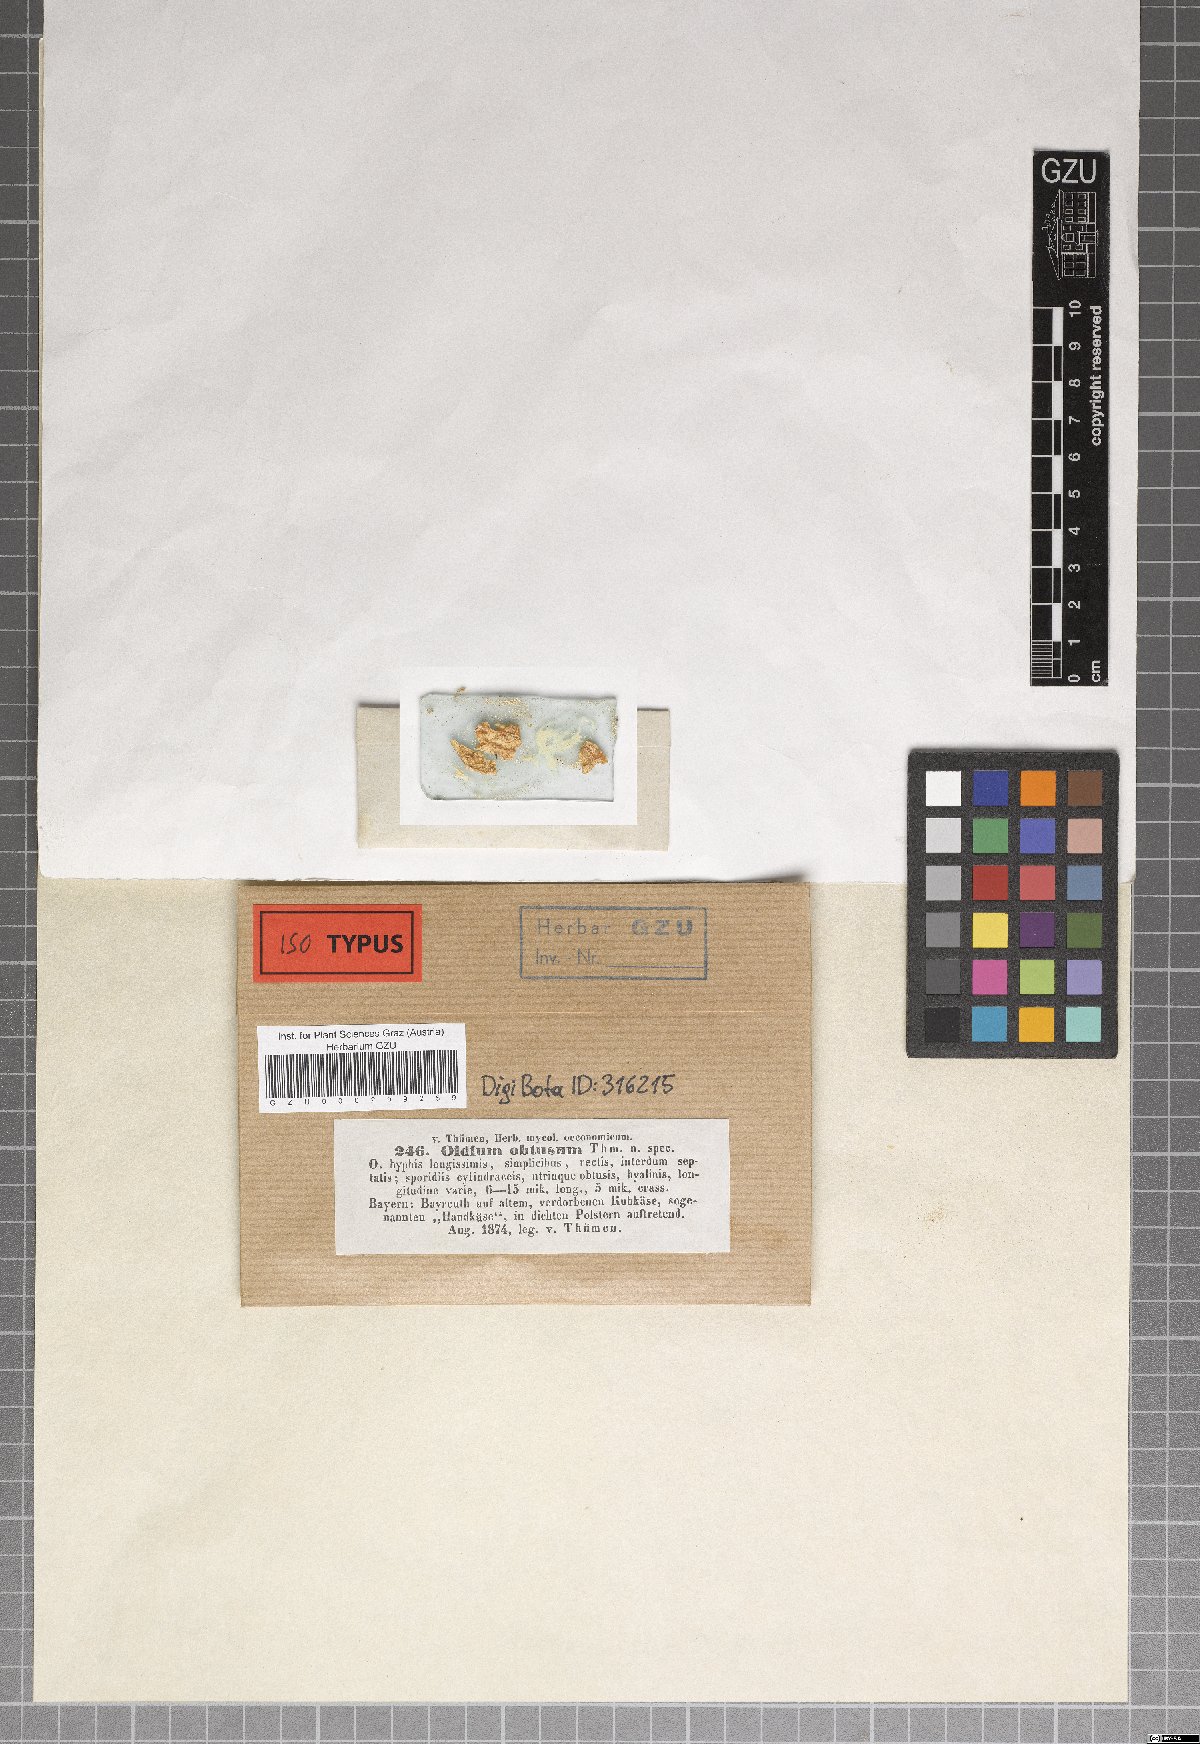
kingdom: Fungi
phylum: Ascomycota
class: Saccharomycetes
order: Saccharomycetales
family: Dipodascaceae
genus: Geotrichum
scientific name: Geotrichum candidum
